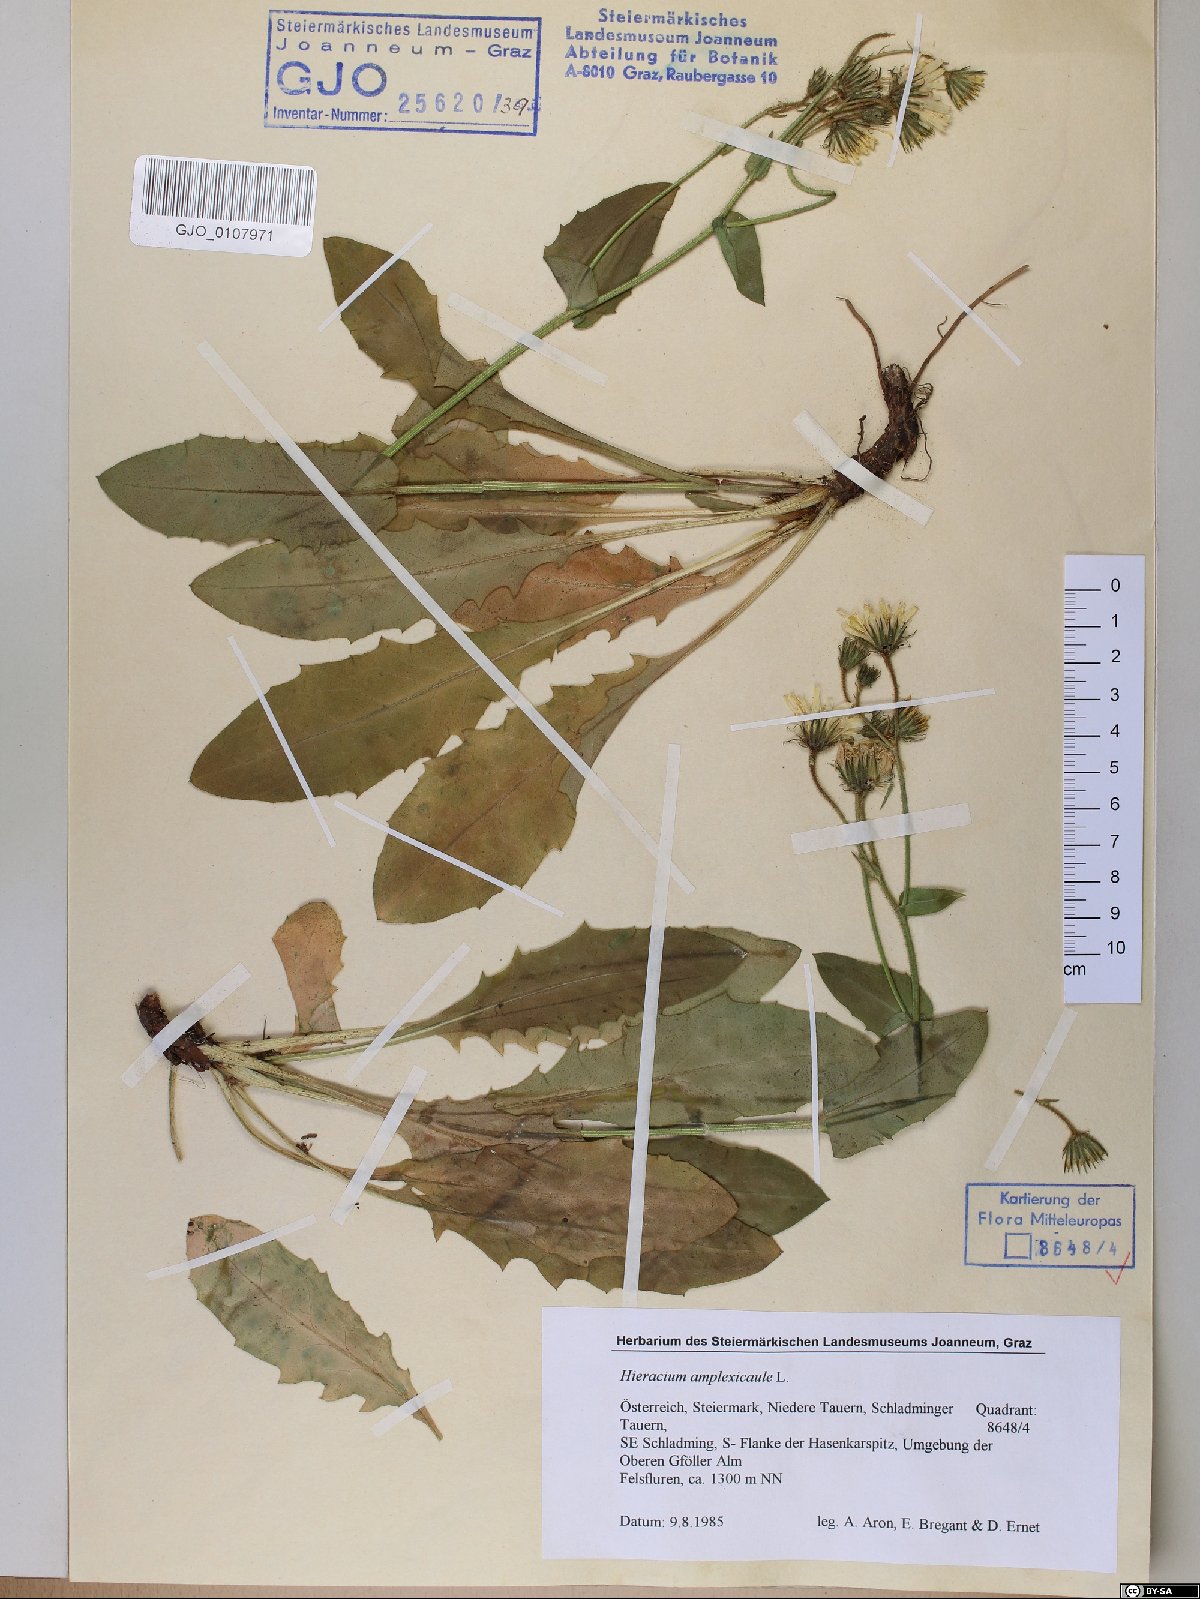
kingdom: Plantae
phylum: Tracheophyta
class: Magnoliopsida
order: Asterales
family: Asteraceae
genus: Hieracium
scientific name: Hieracium amplexicaule
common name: Sticky hawkweed
